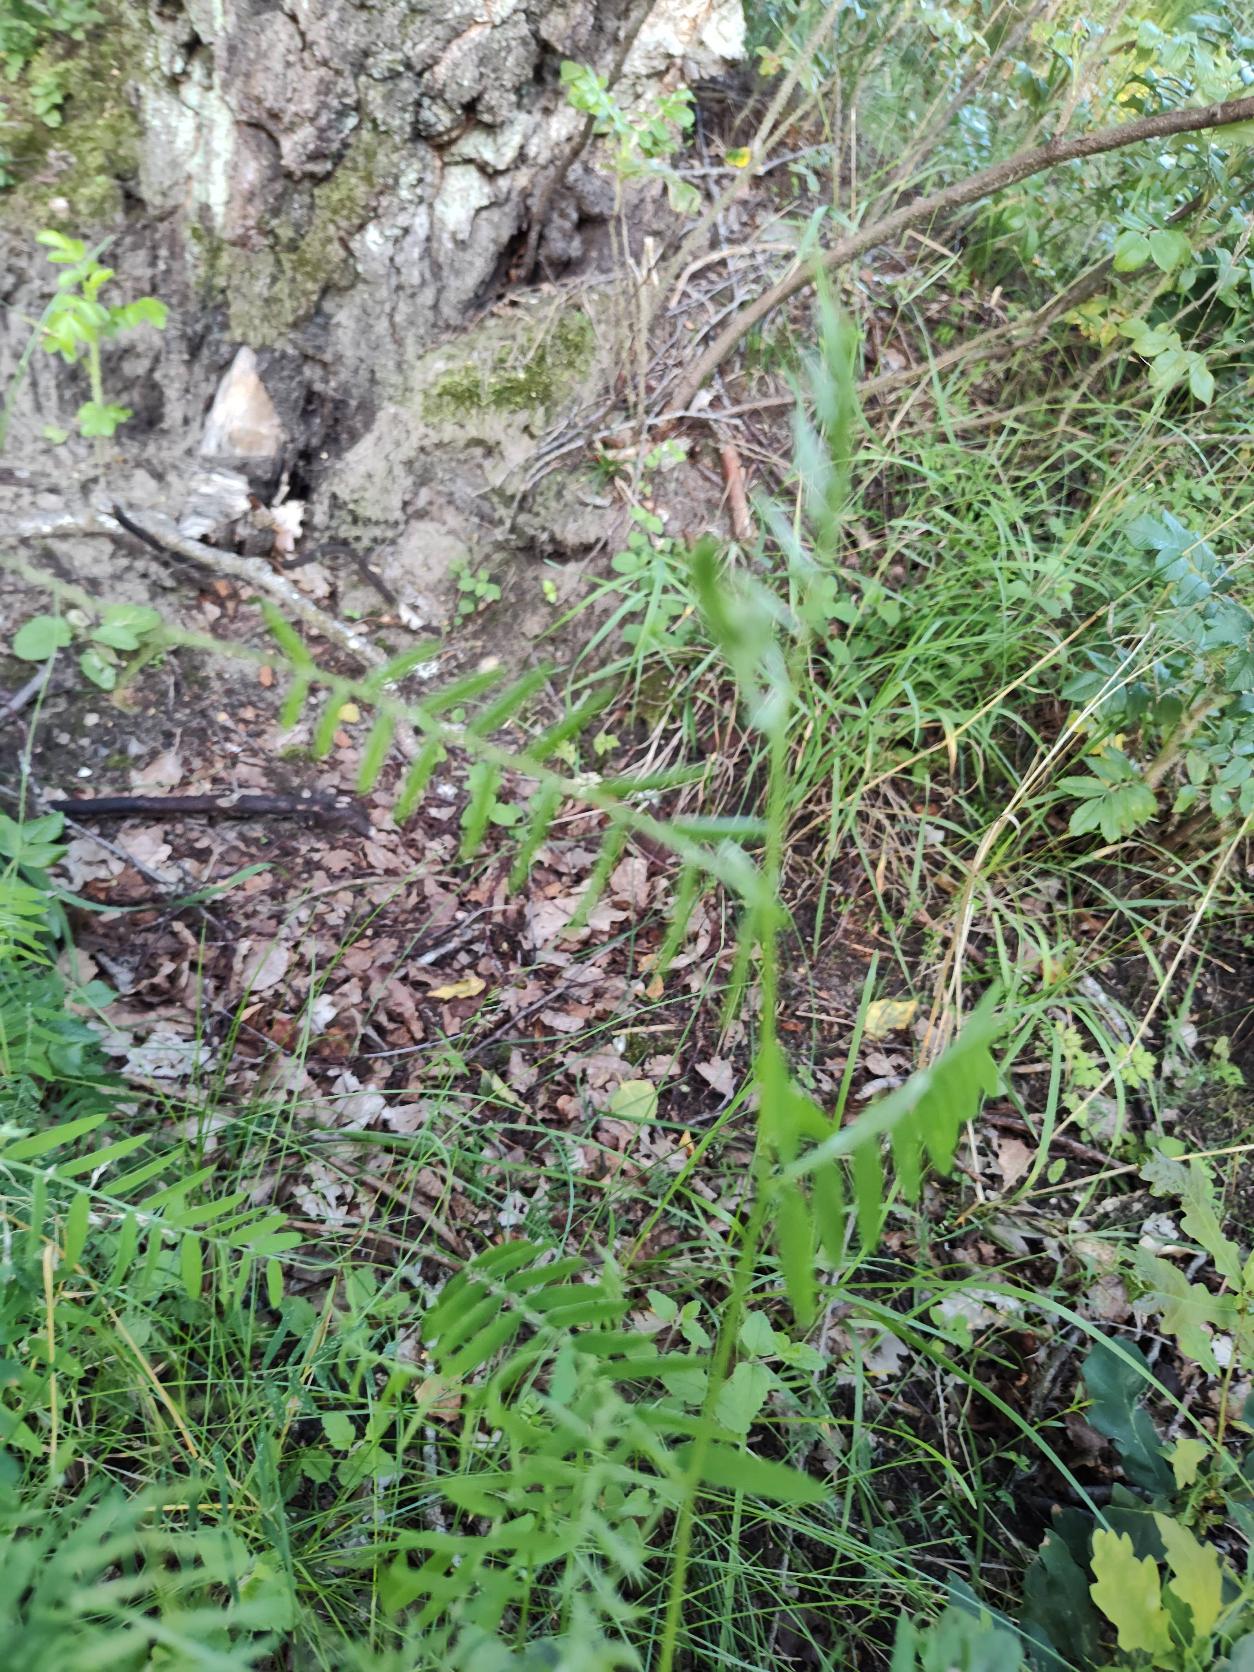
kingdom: Plantae
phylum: Tracheophyta
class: Magnoliopsida
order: Fabales
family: Fabaceae
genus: Vicia
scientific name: Vicia
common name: Vikkeslægten
